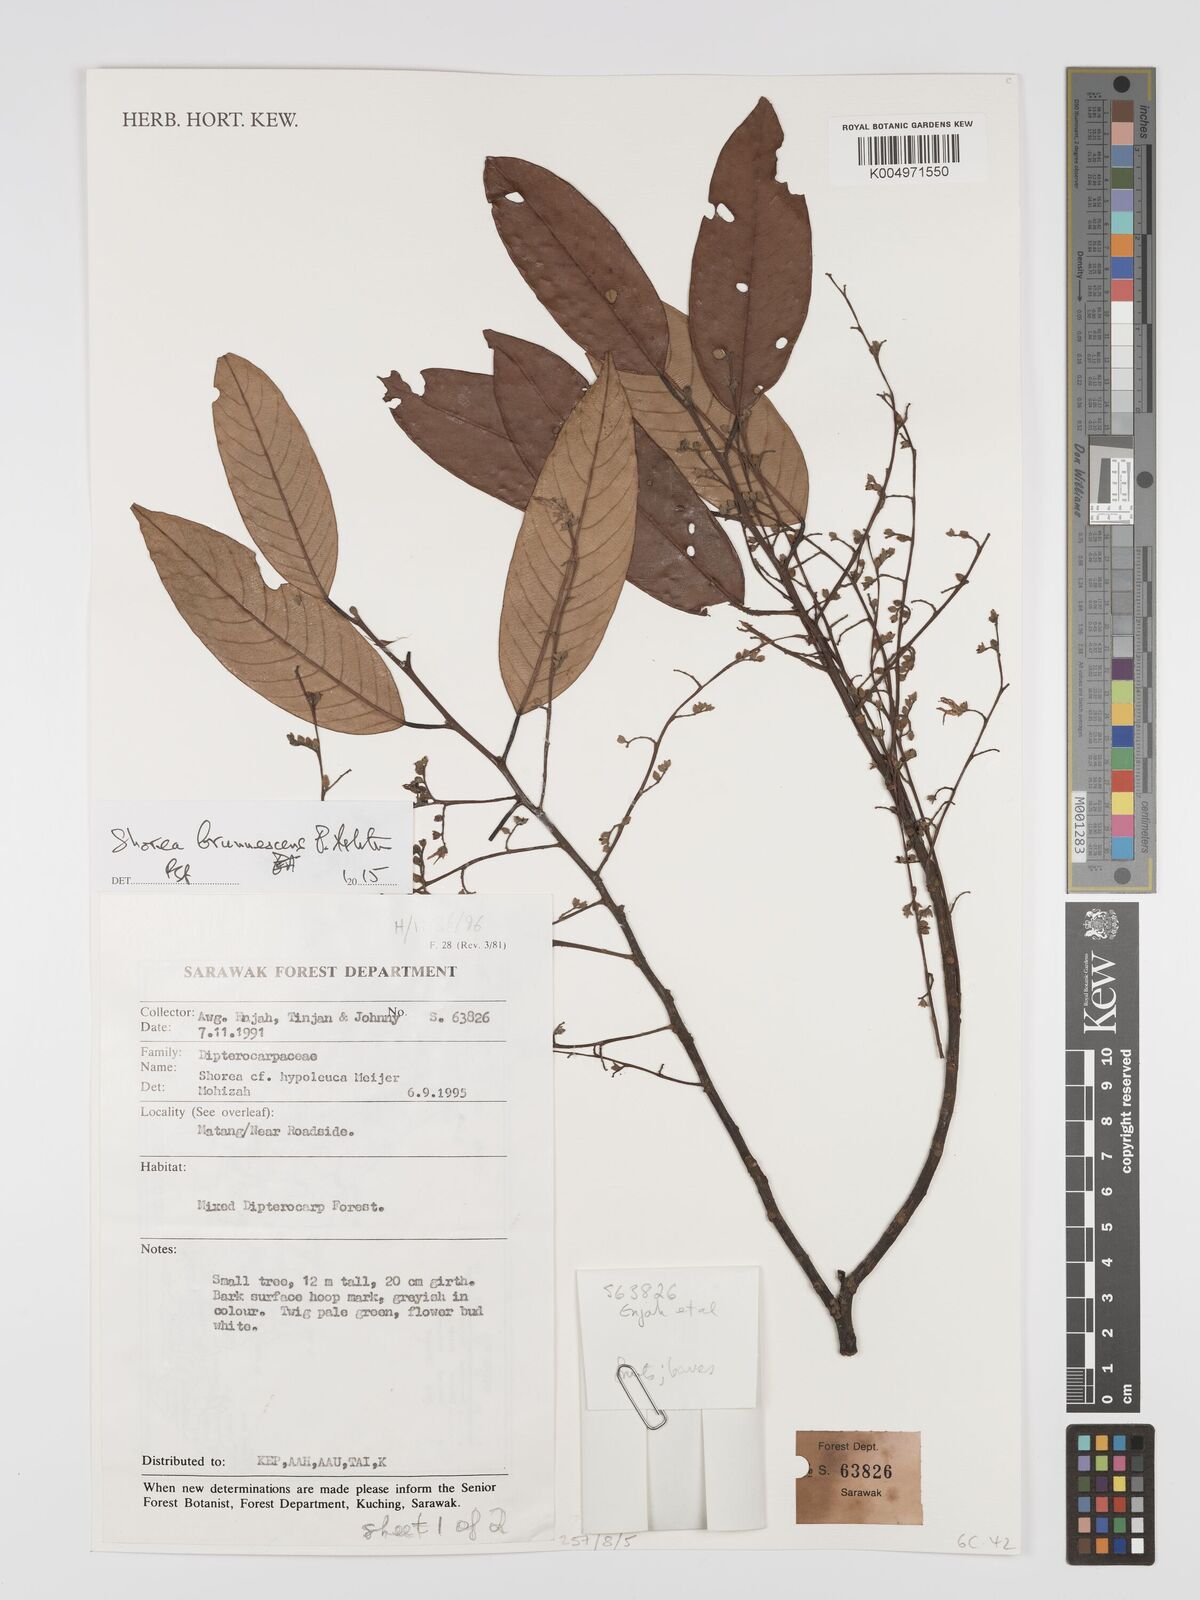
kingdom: Plantae
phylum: Tracheophyta
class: Magnoliopsida
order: Malvales
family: Dipterocarpaceae
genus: Shorea
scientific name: Shorea brunnescens
